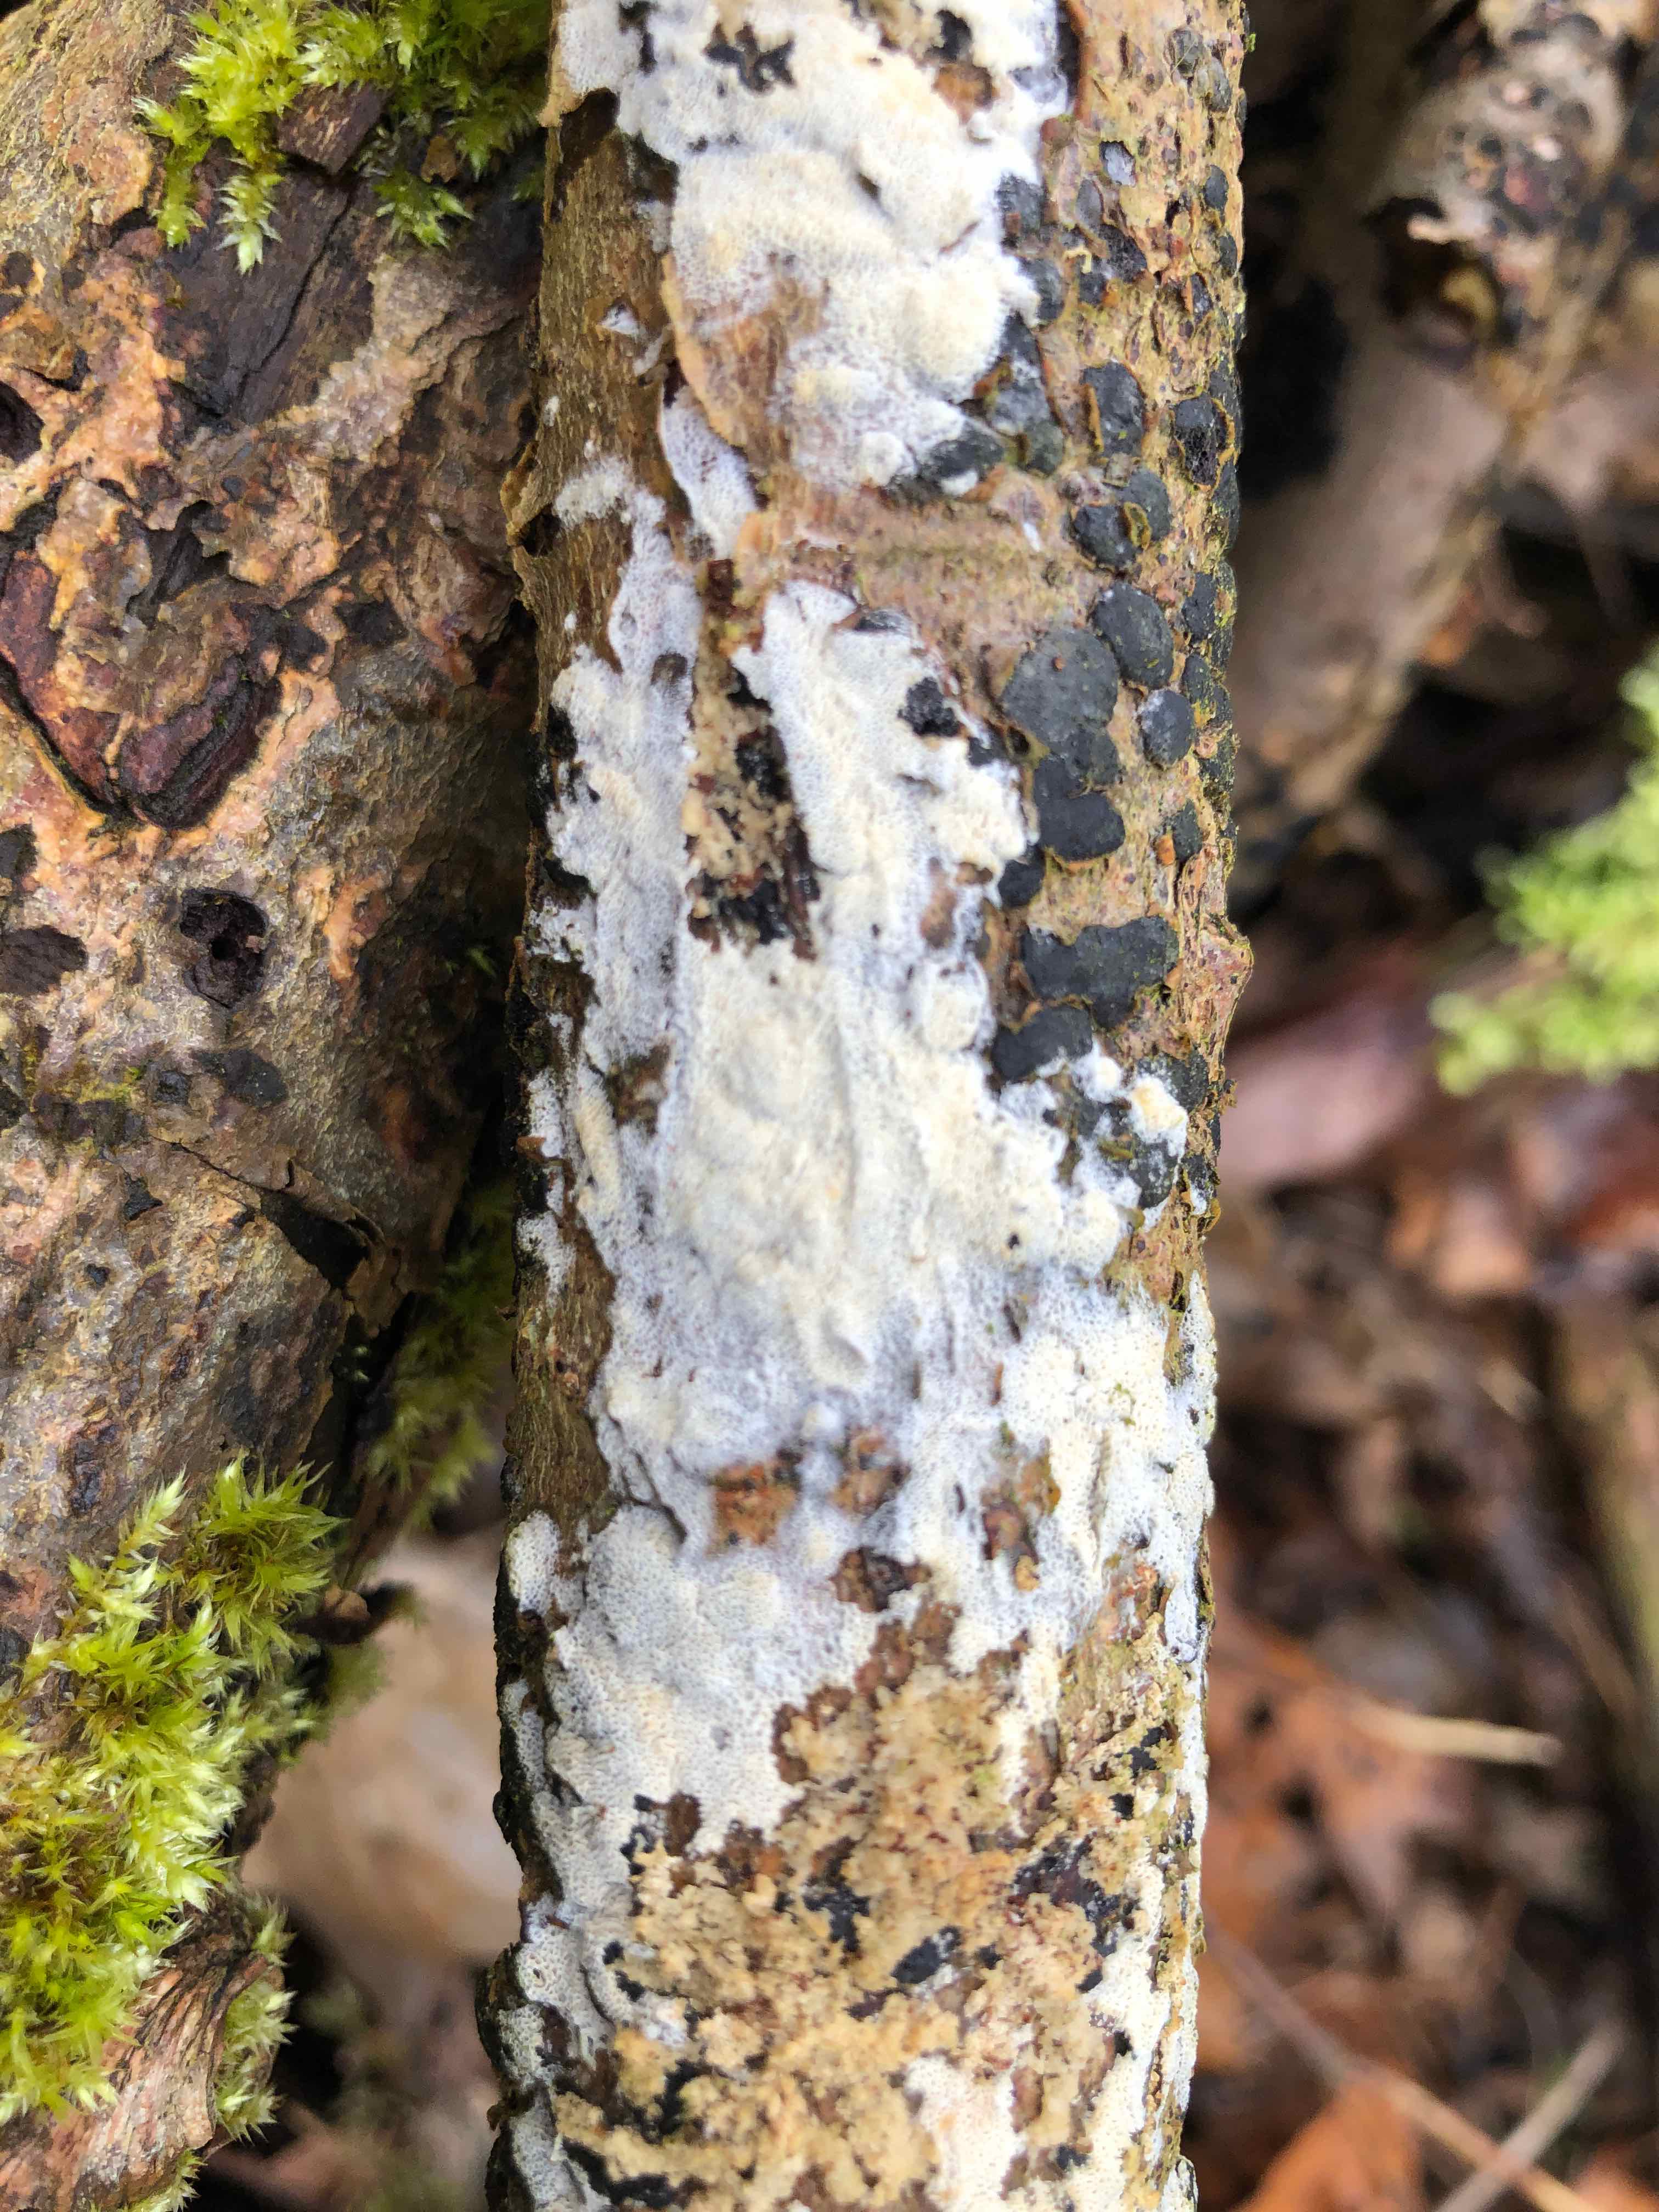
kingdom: Fungi
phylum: Basidiomycota
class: Agaricomycetes
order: Hymenochaetales
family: Schizoporaceae
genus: Xylodon
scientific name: Xylodon subtropicus
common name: labyrint-tandsvamp
